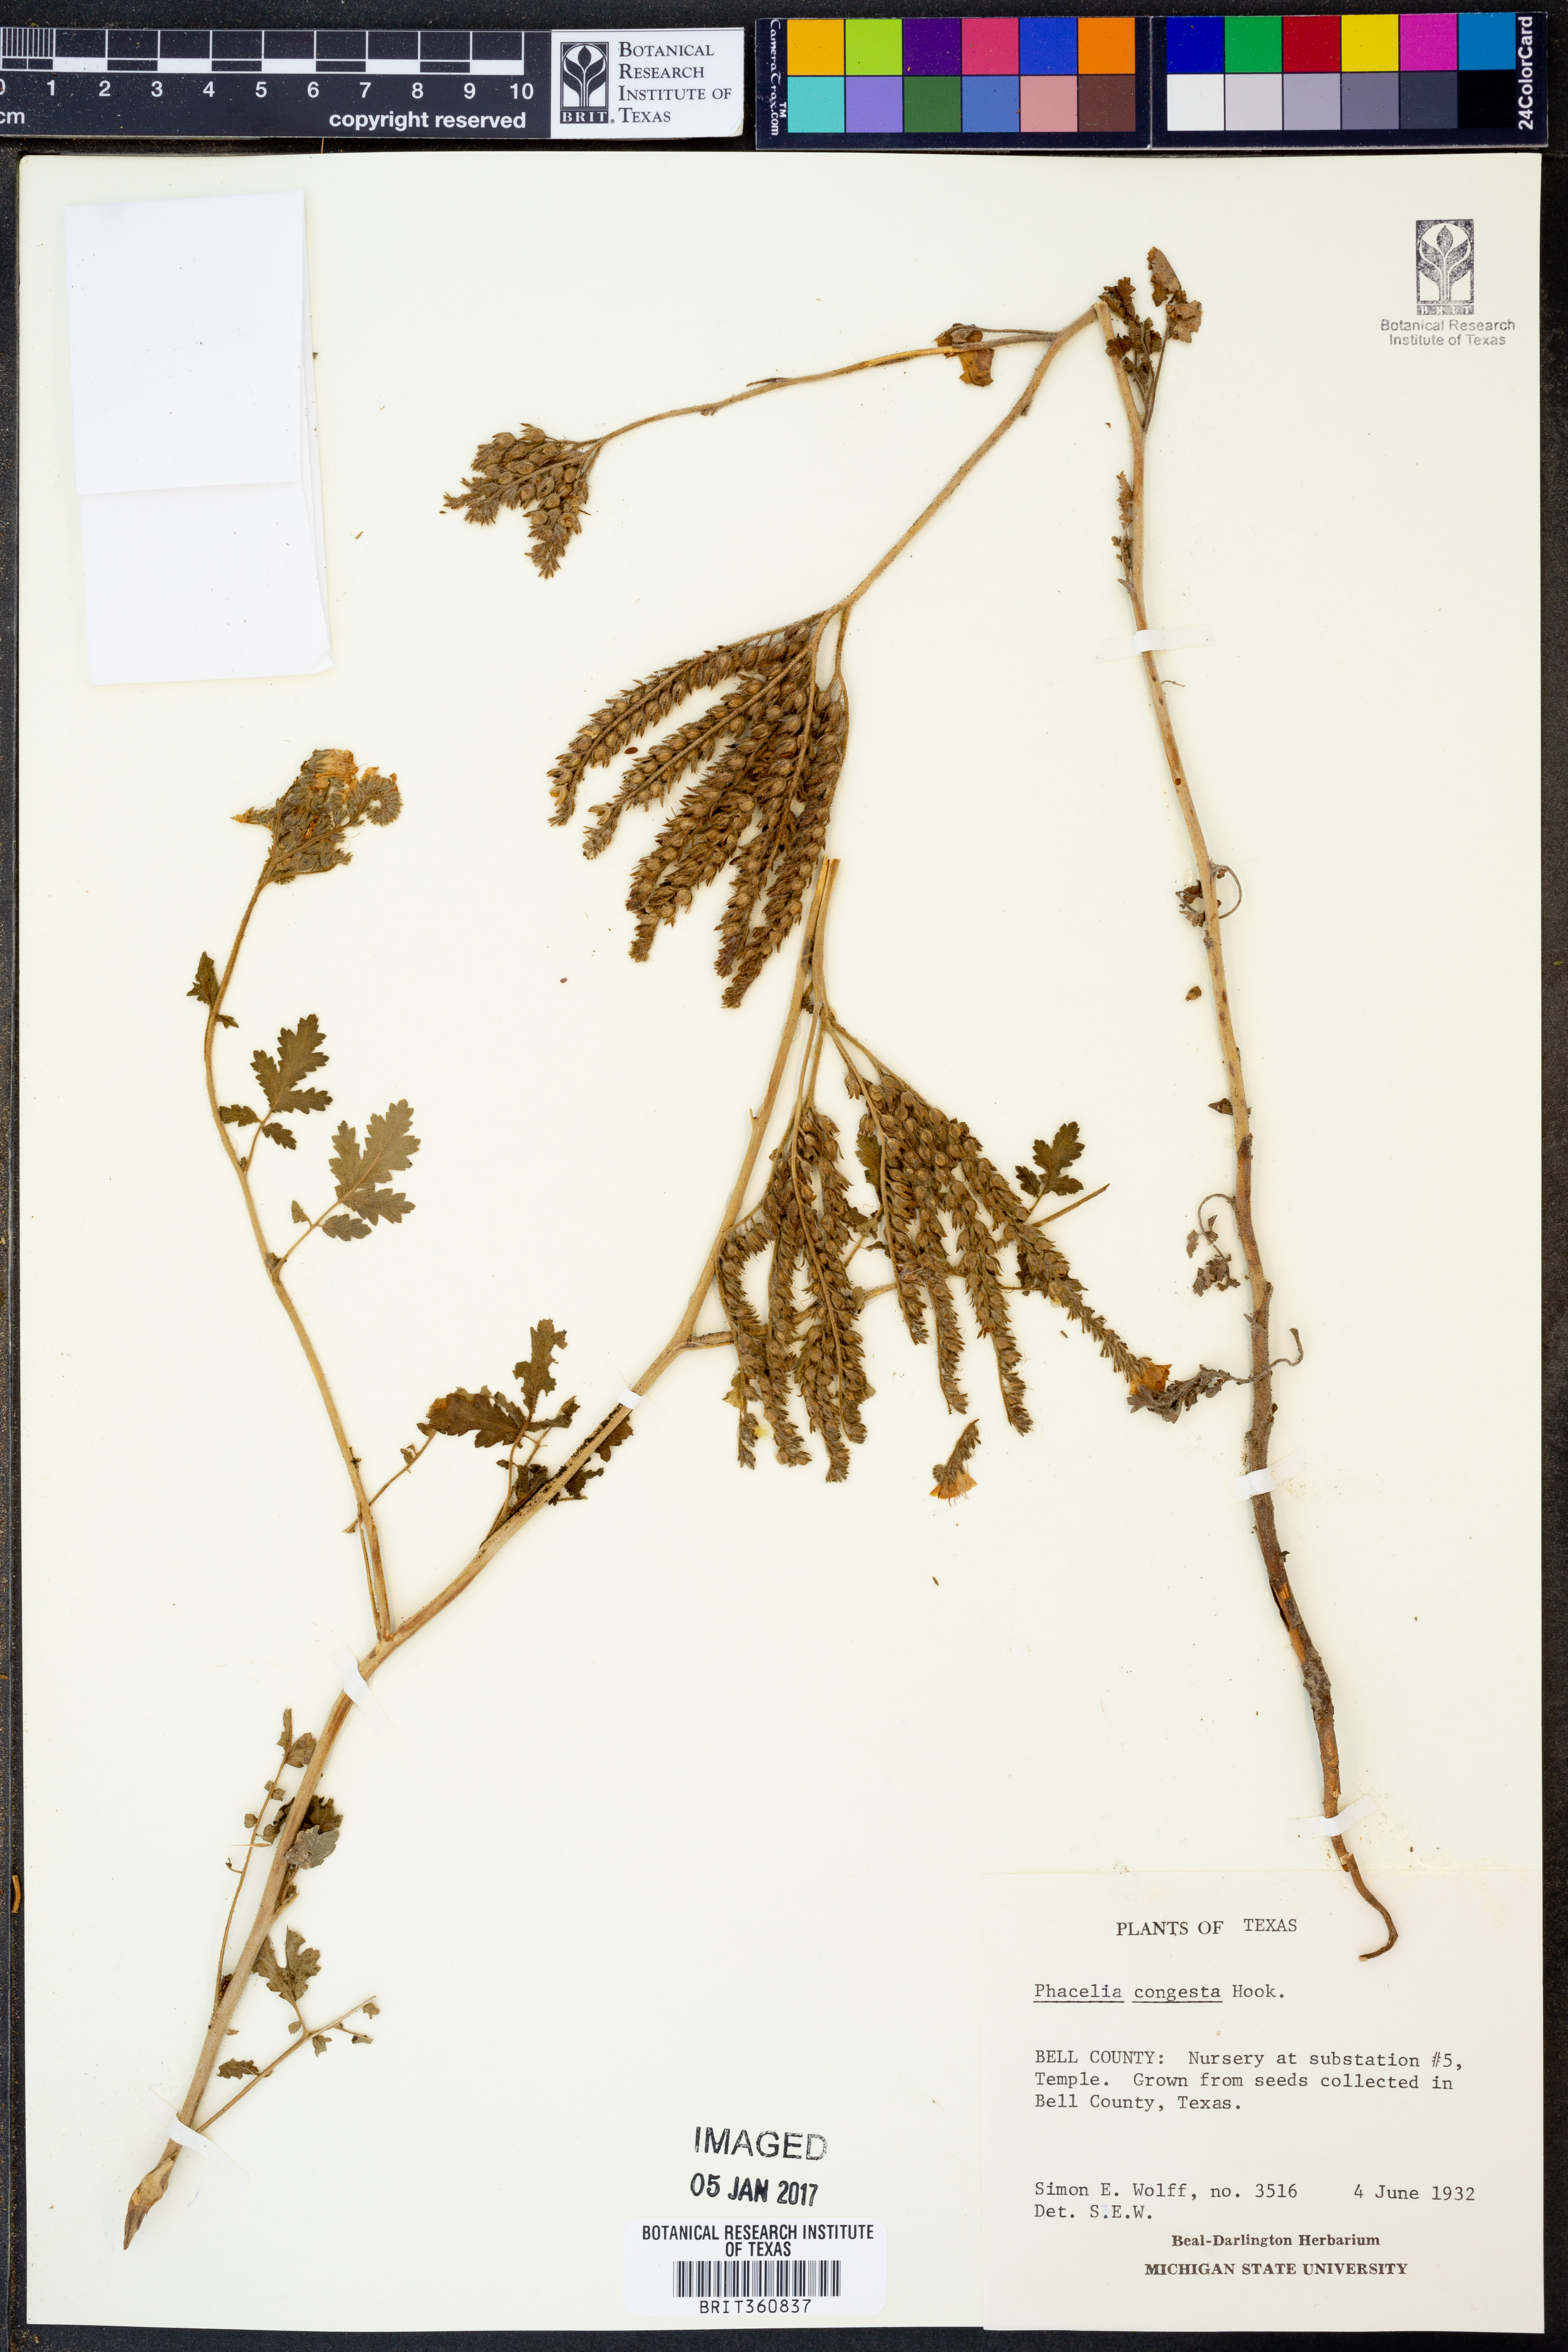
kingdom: Plantae
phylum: Tracheophyta
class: Magnoliopsida
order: Boraginales
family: Hydrophyllaceae
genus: Phacelia
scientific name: Phacelia congesta
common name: Blue curls
